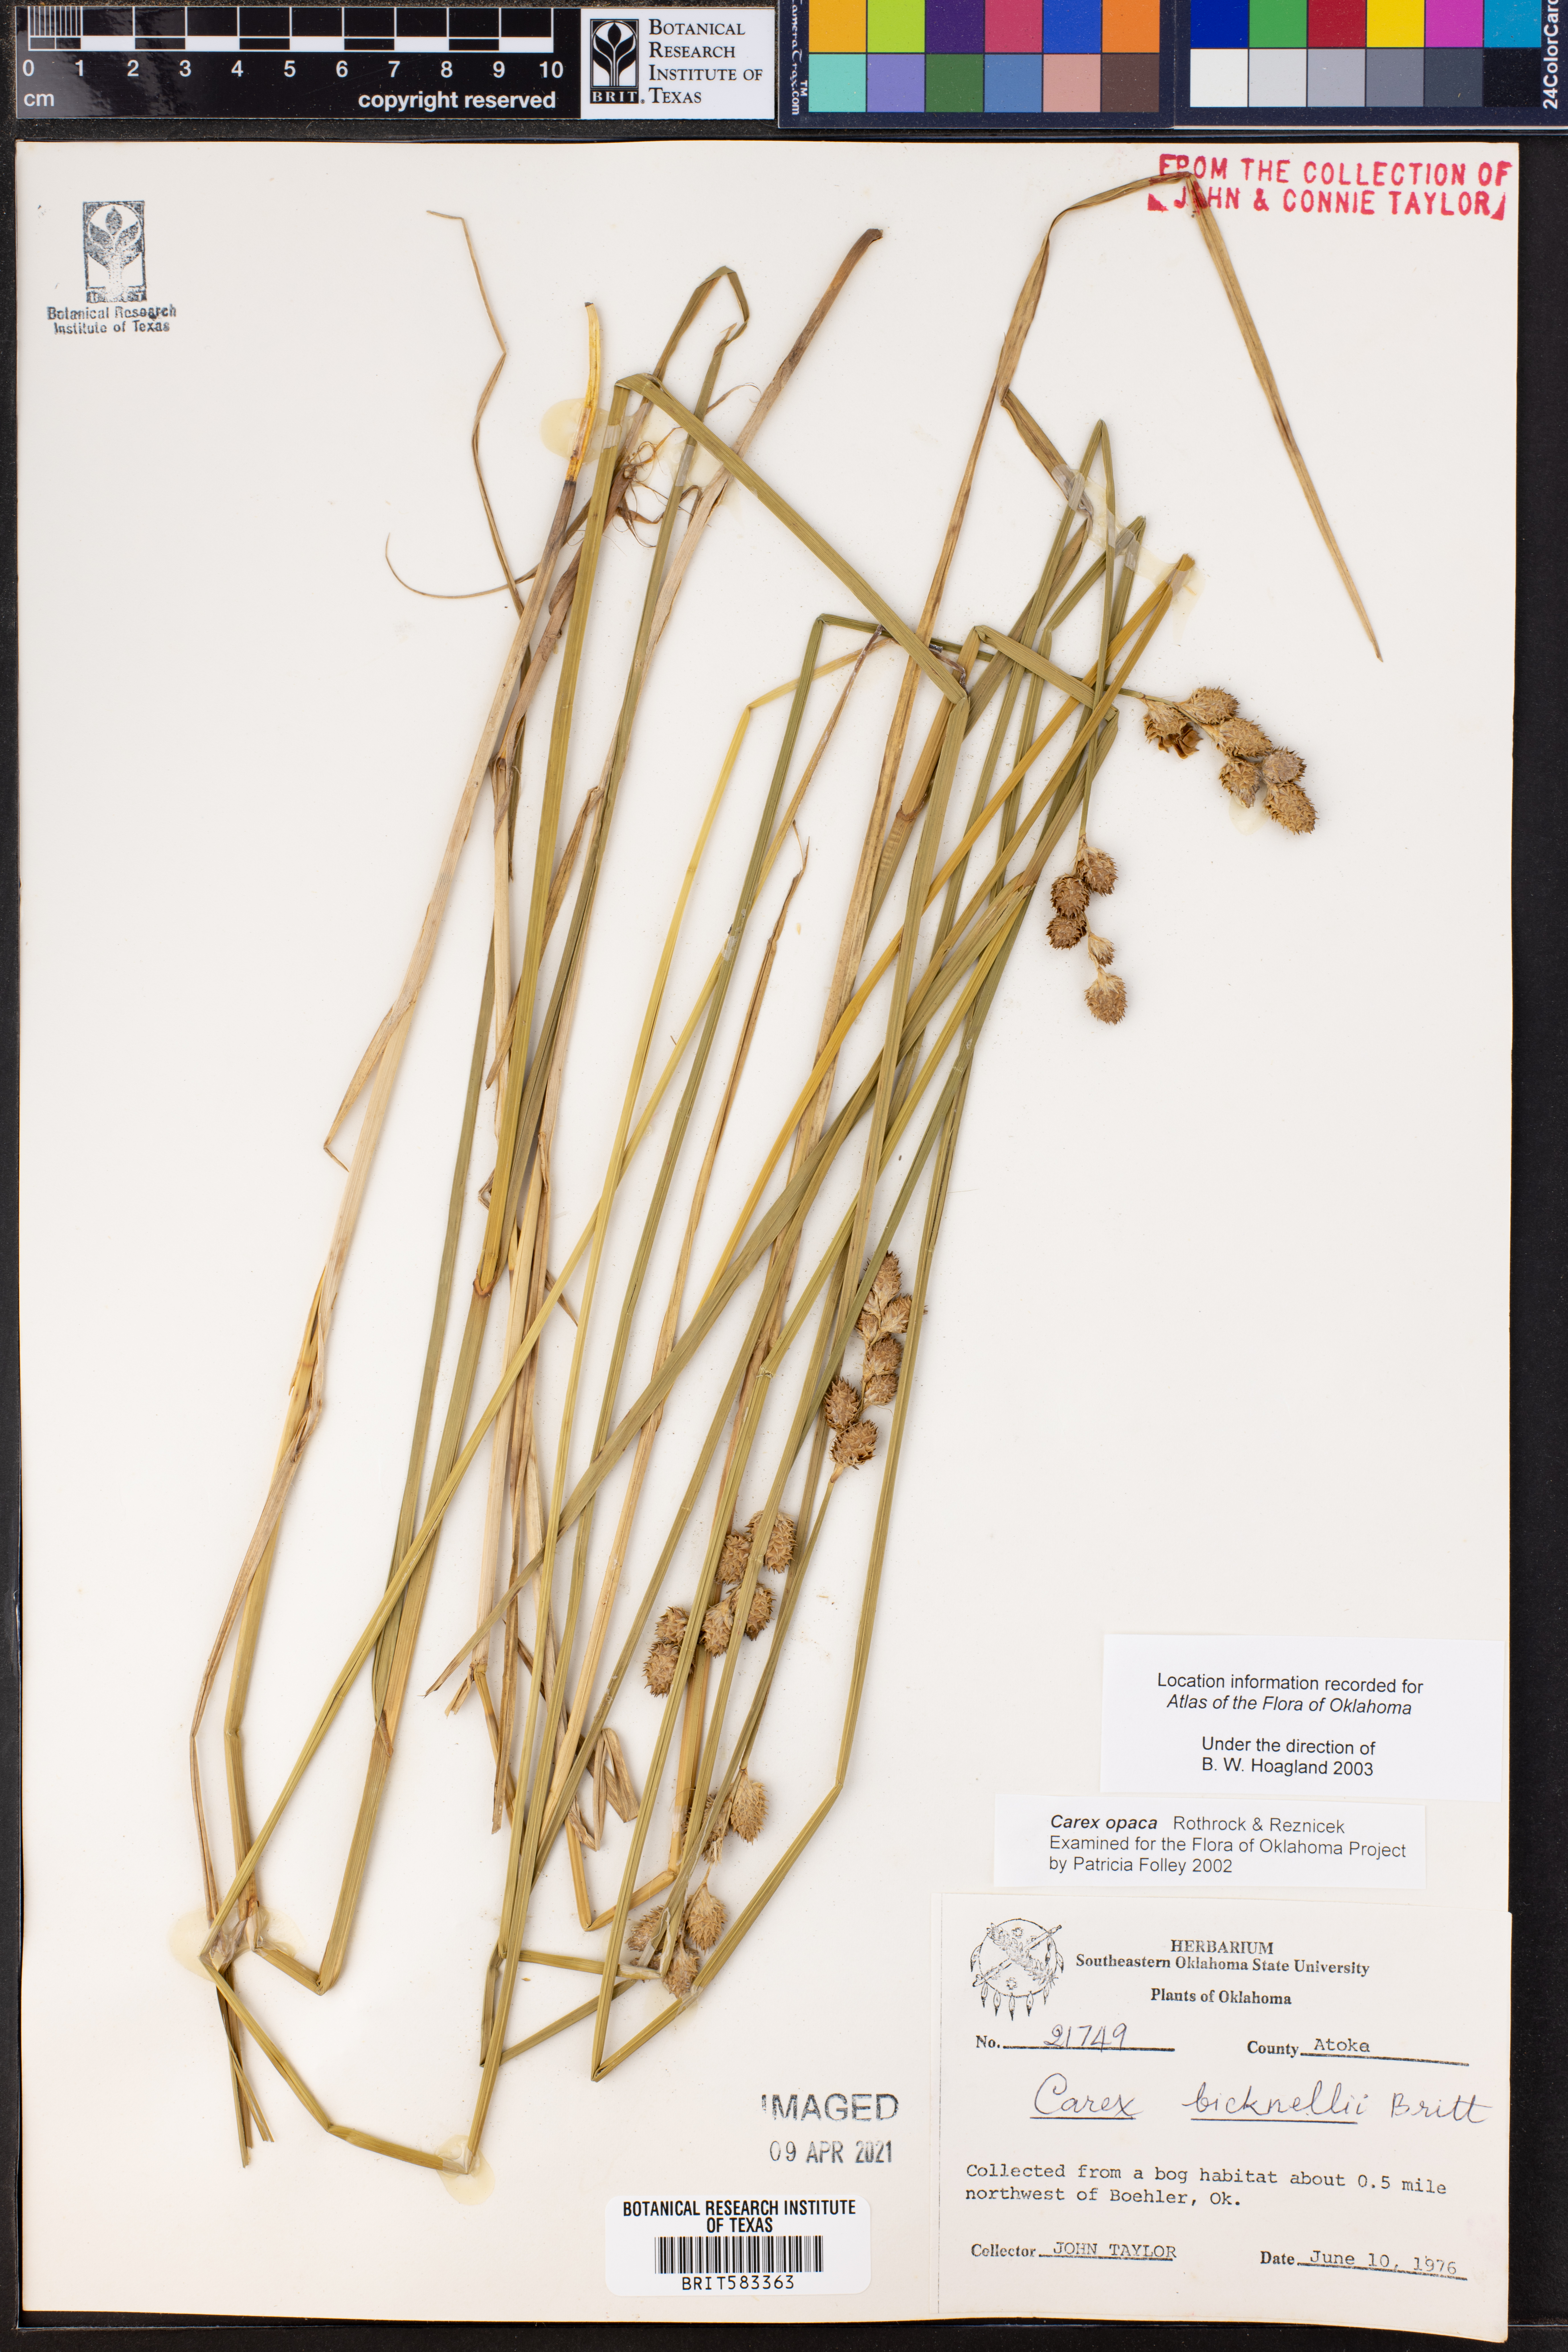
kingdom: Plantae
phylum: Tracheophyta
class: Liliopsida
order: Poales
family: Cyperaceae
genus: Carex
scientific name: Carex opaca
